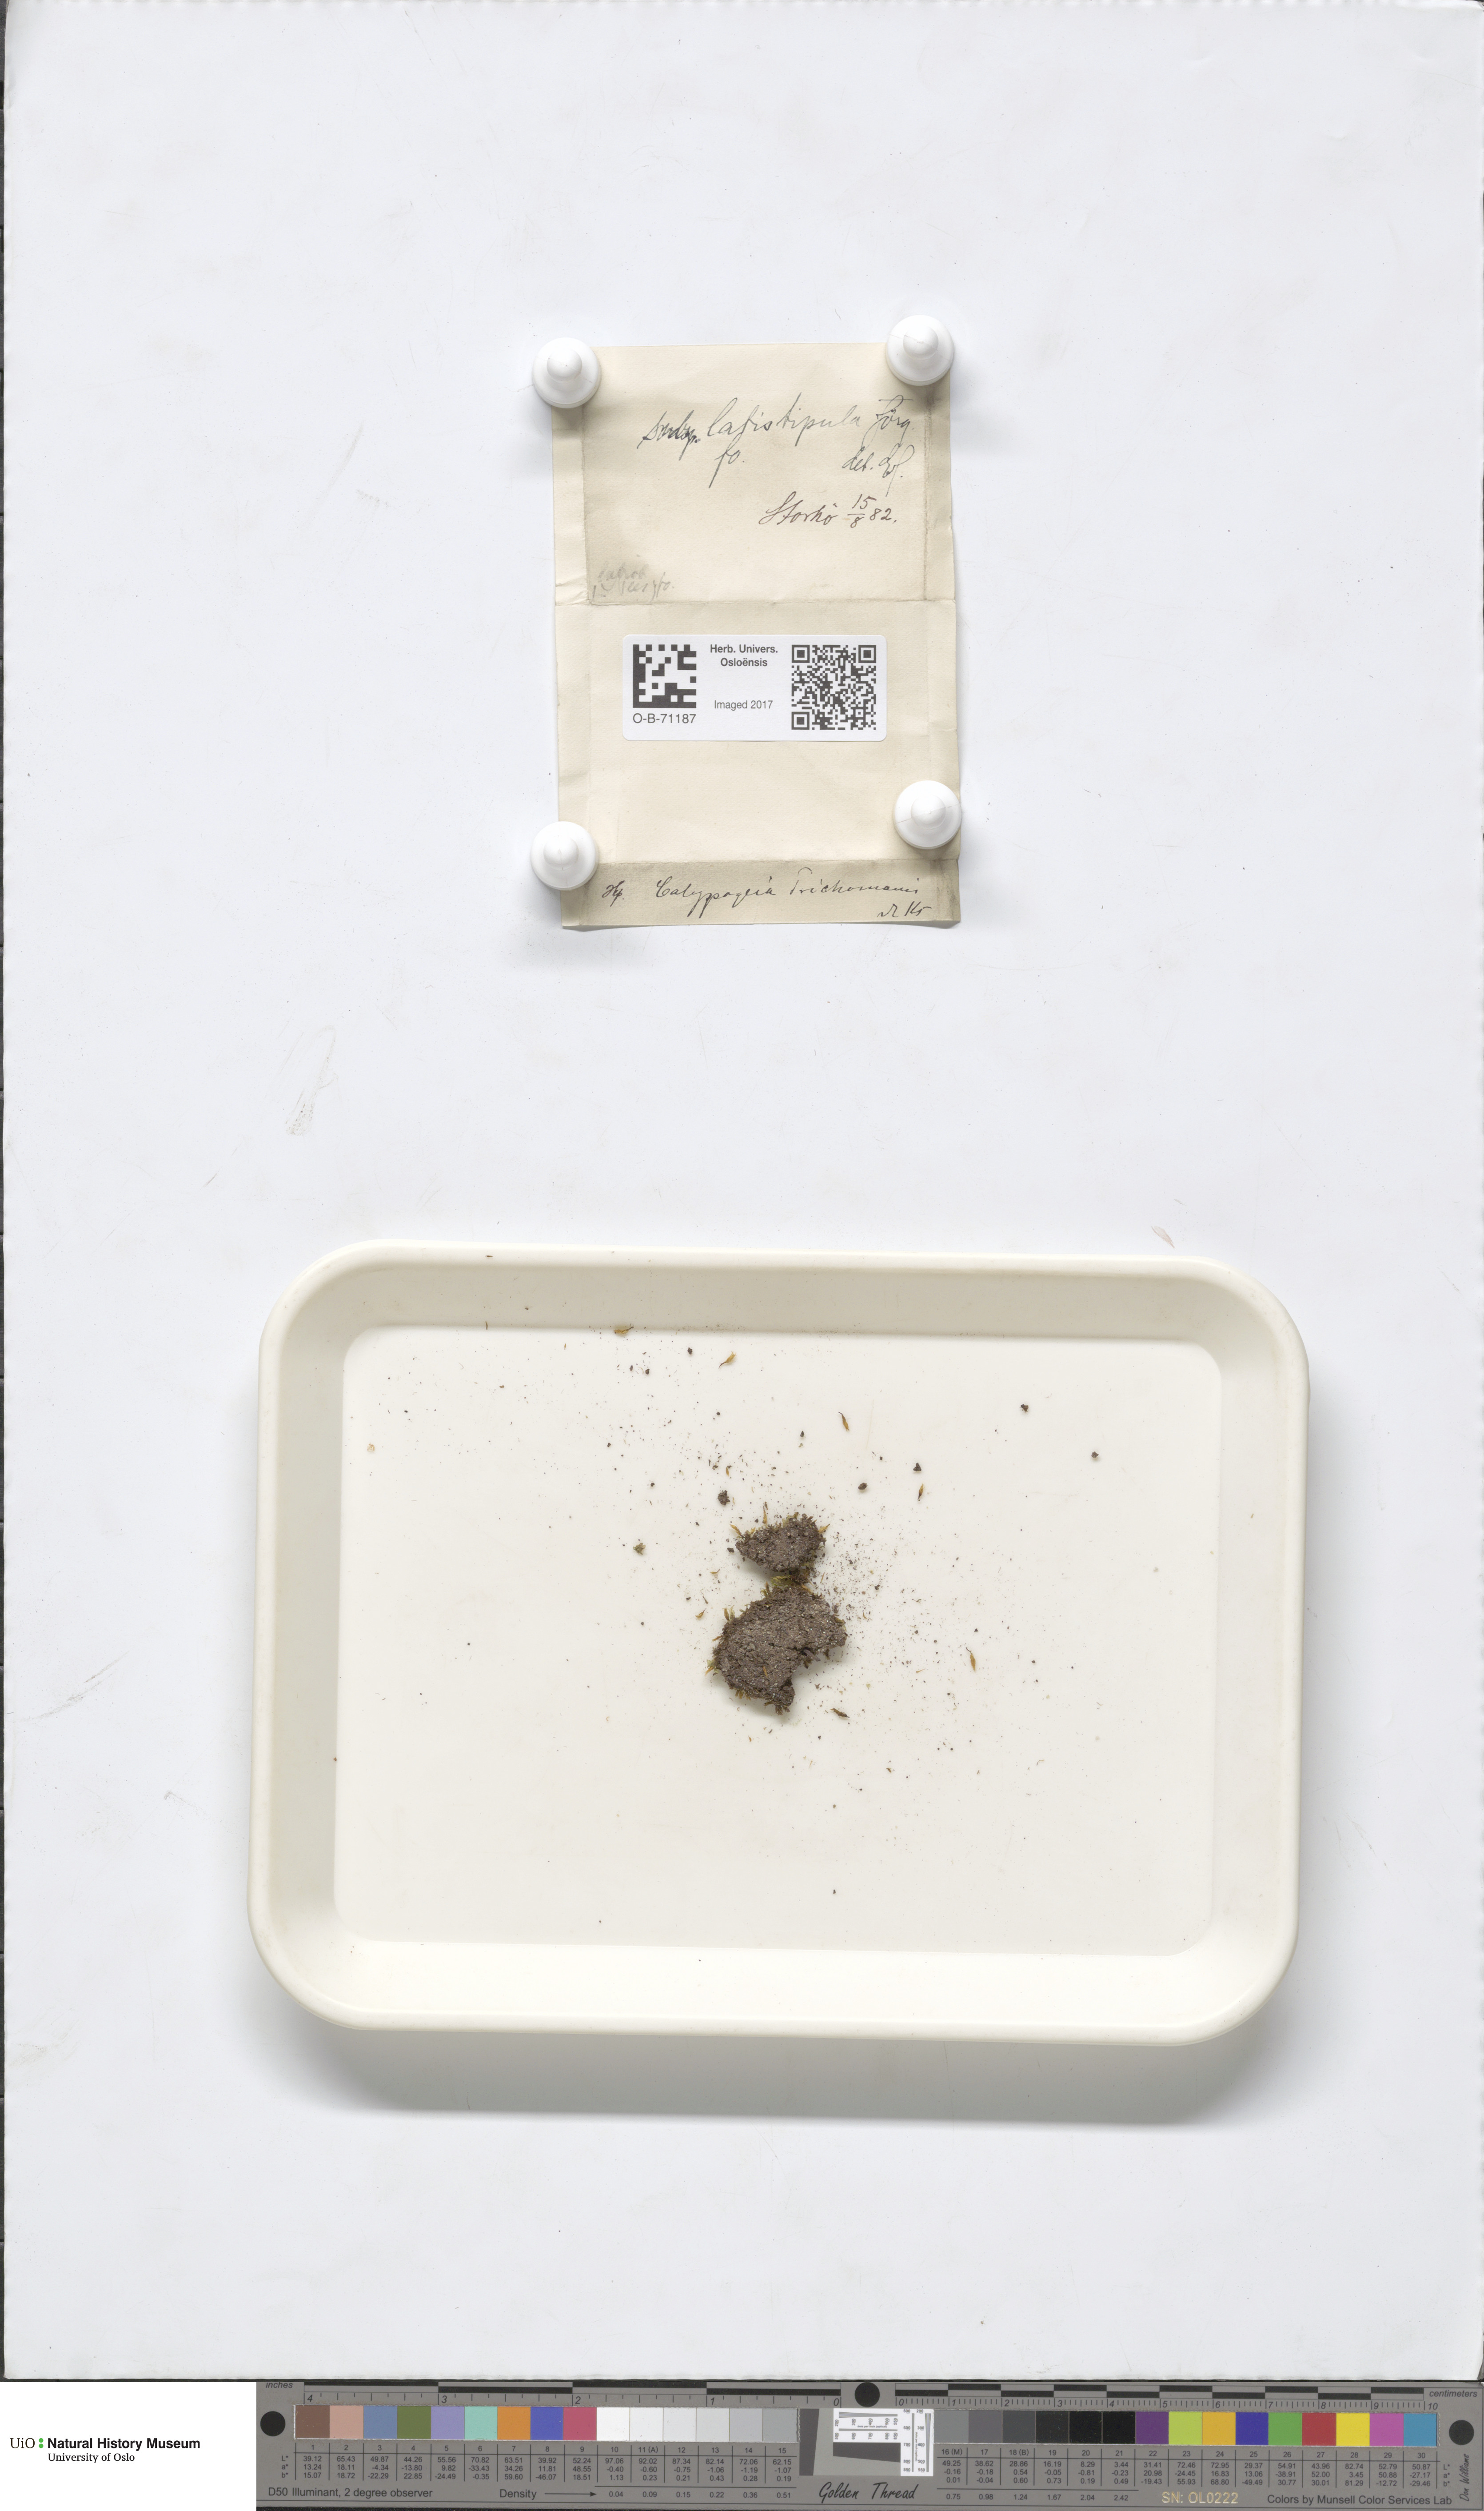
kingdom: Plantae
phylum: Marchantiophyta
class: Jungermanniopsida
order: Jungermanniales
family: Calypogeiaceae
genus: Calypogeia
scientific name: Calypogeia neesiana
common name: Nees  pouchwort
